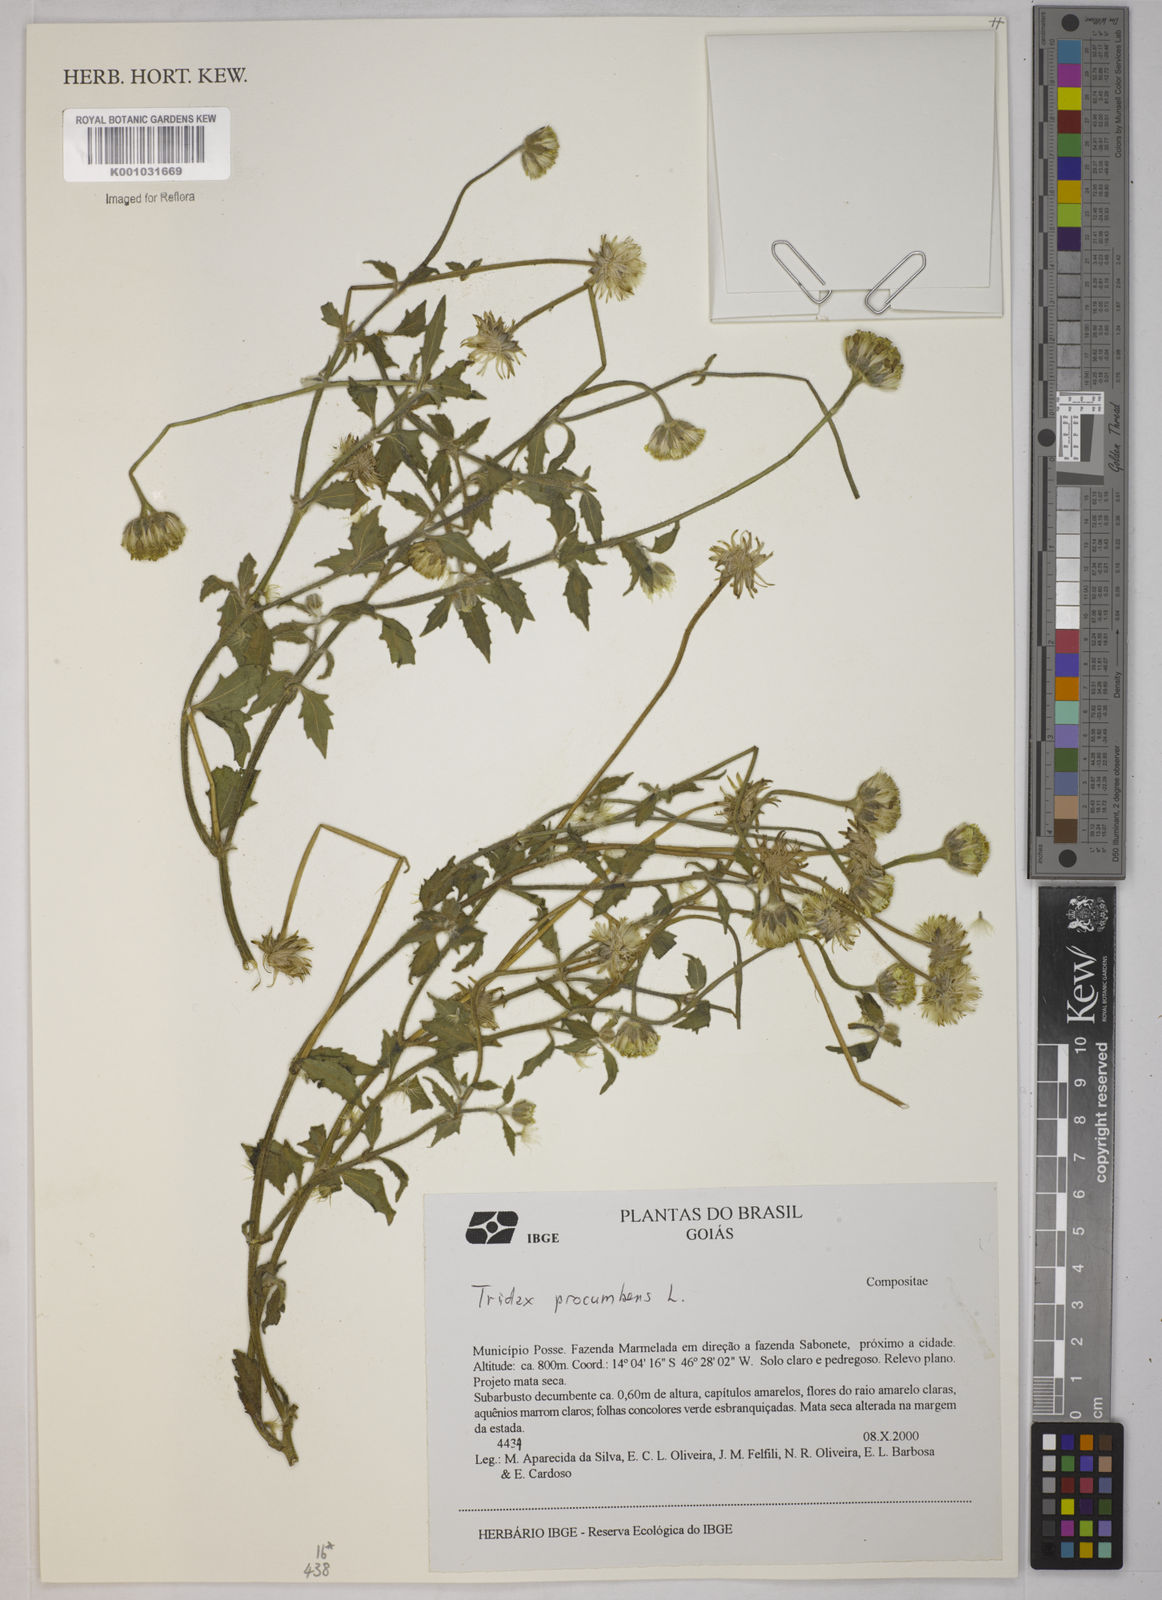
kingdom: Plantae
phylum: Tracheophyta
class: Magnoliopsida
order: Asterales
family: Asteraceae
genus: Tridax
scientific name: Tridax procumbens
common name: Coatbuttons
